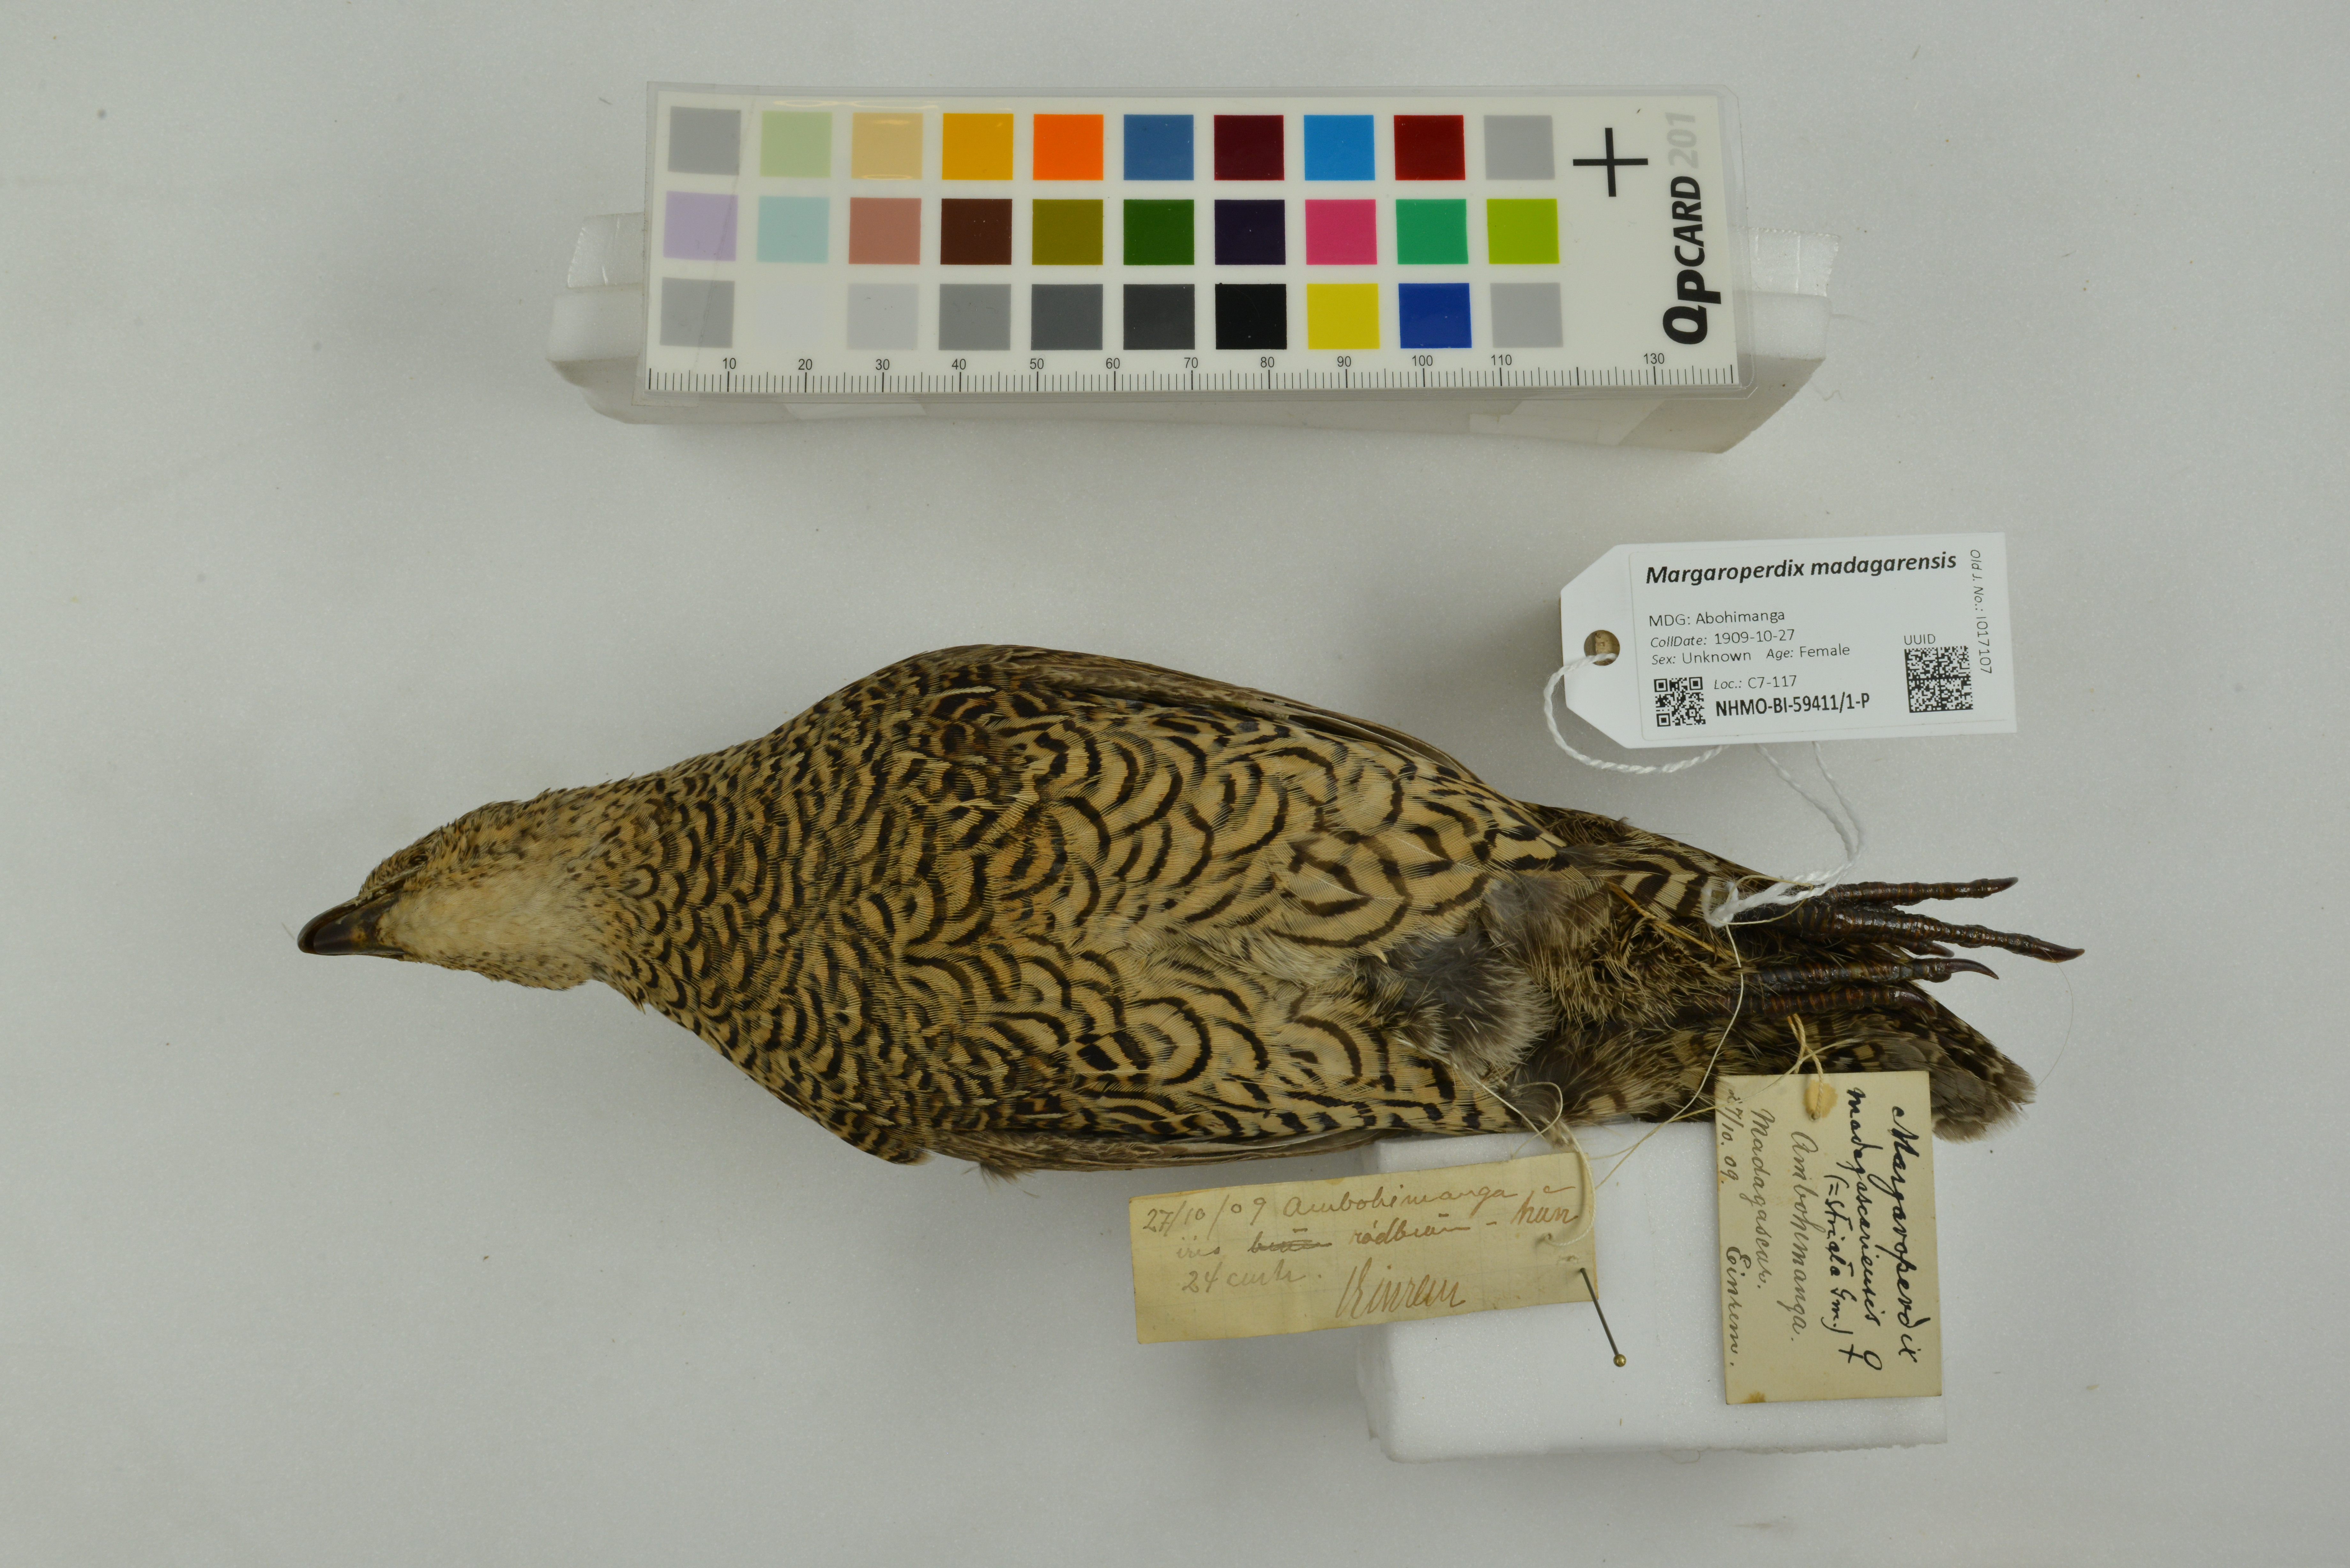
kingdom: Animalia
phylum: Chordata
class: Aves
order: Galliformes
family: Phasianidae
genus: Margaroperdix
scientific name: Margaroperdix madagarensis
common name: Madagascar partridge
